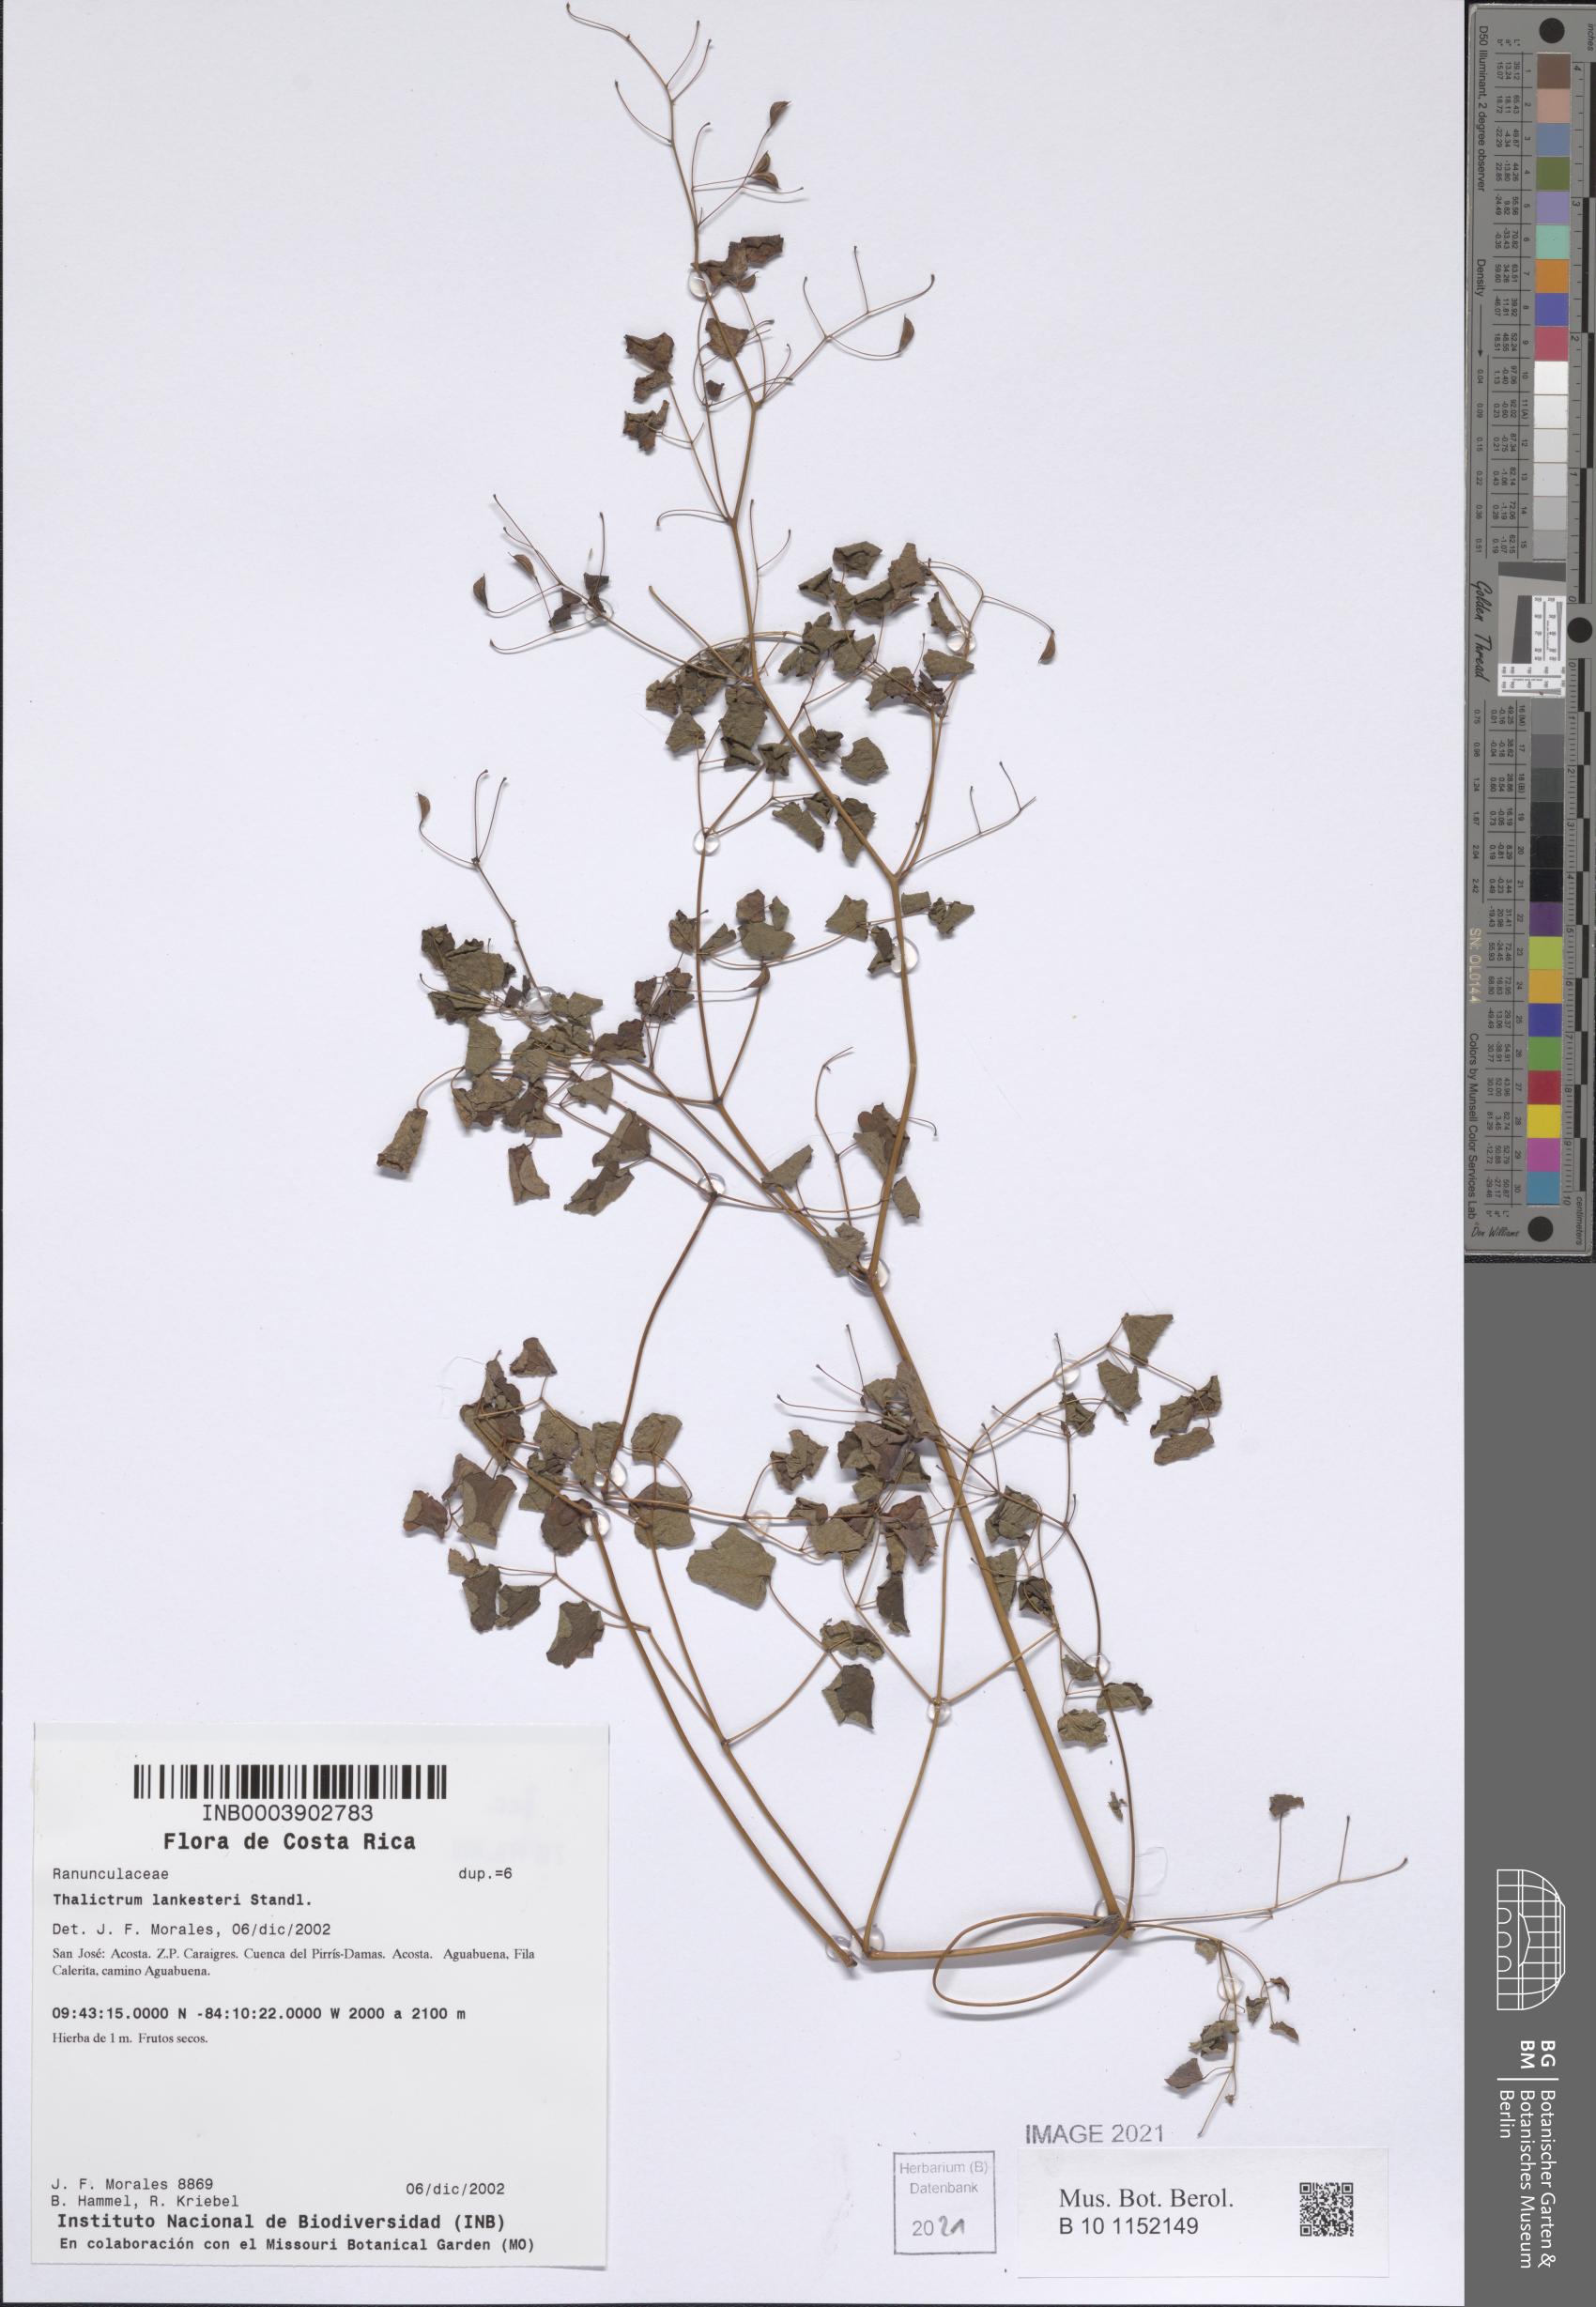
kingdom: Plantae
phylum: Tracheophyta
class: Magnoliopsida
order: Ranunculales
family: Ranunculaceae
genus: Thalictrum
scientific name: Thalictrum lankesteri
